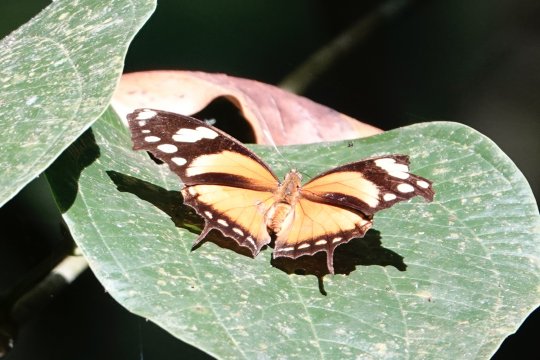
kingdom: Animalia
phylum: Arthropoda
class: Insecta
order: Lepidoptera
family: Nymphalidae
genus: Consul
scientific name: Consul fabius
